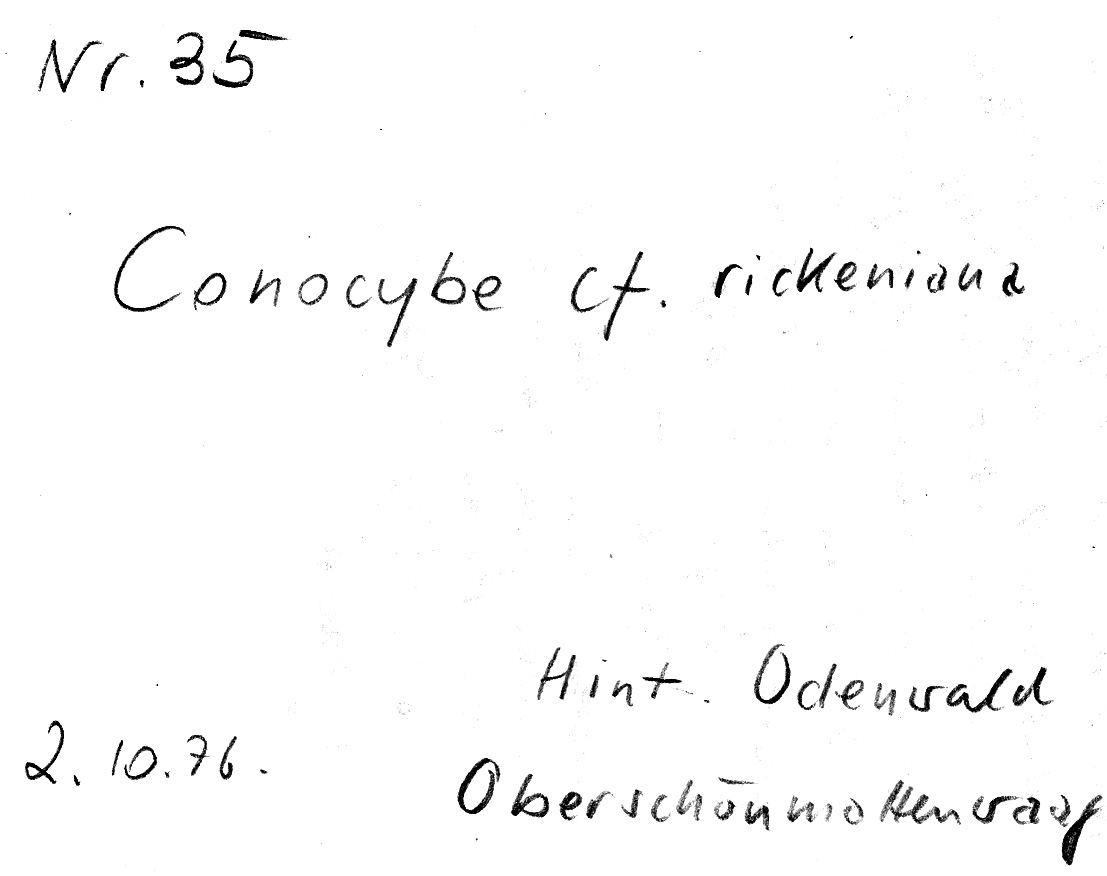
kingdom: Fungi
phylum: Basidiomycota
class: Agaricomycetes
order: Agaricales
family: Bolbitiaceae
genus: Conocybe
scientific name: Conocybe rickeniana
